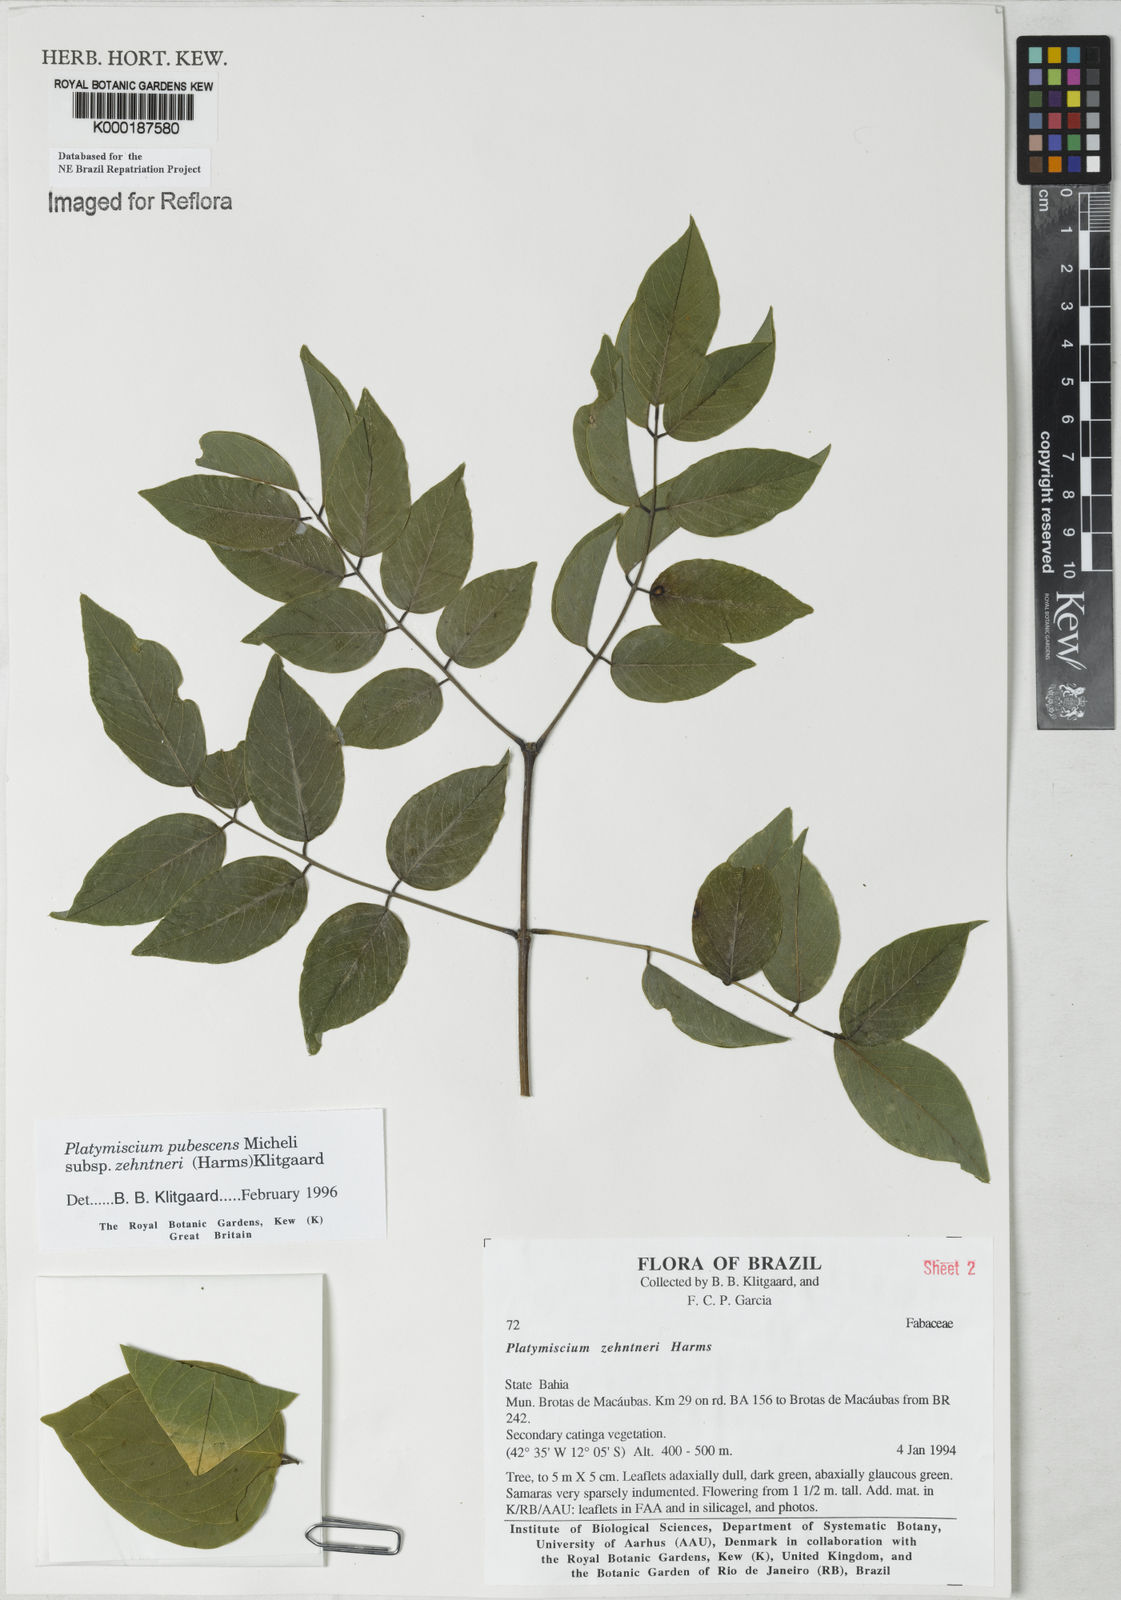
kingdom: Plantae
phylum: Tracheophyta
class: Magnoliopsida
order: Fabales
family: Fabaceae
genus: Platymiscium
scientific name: Platymiscium pubescens
